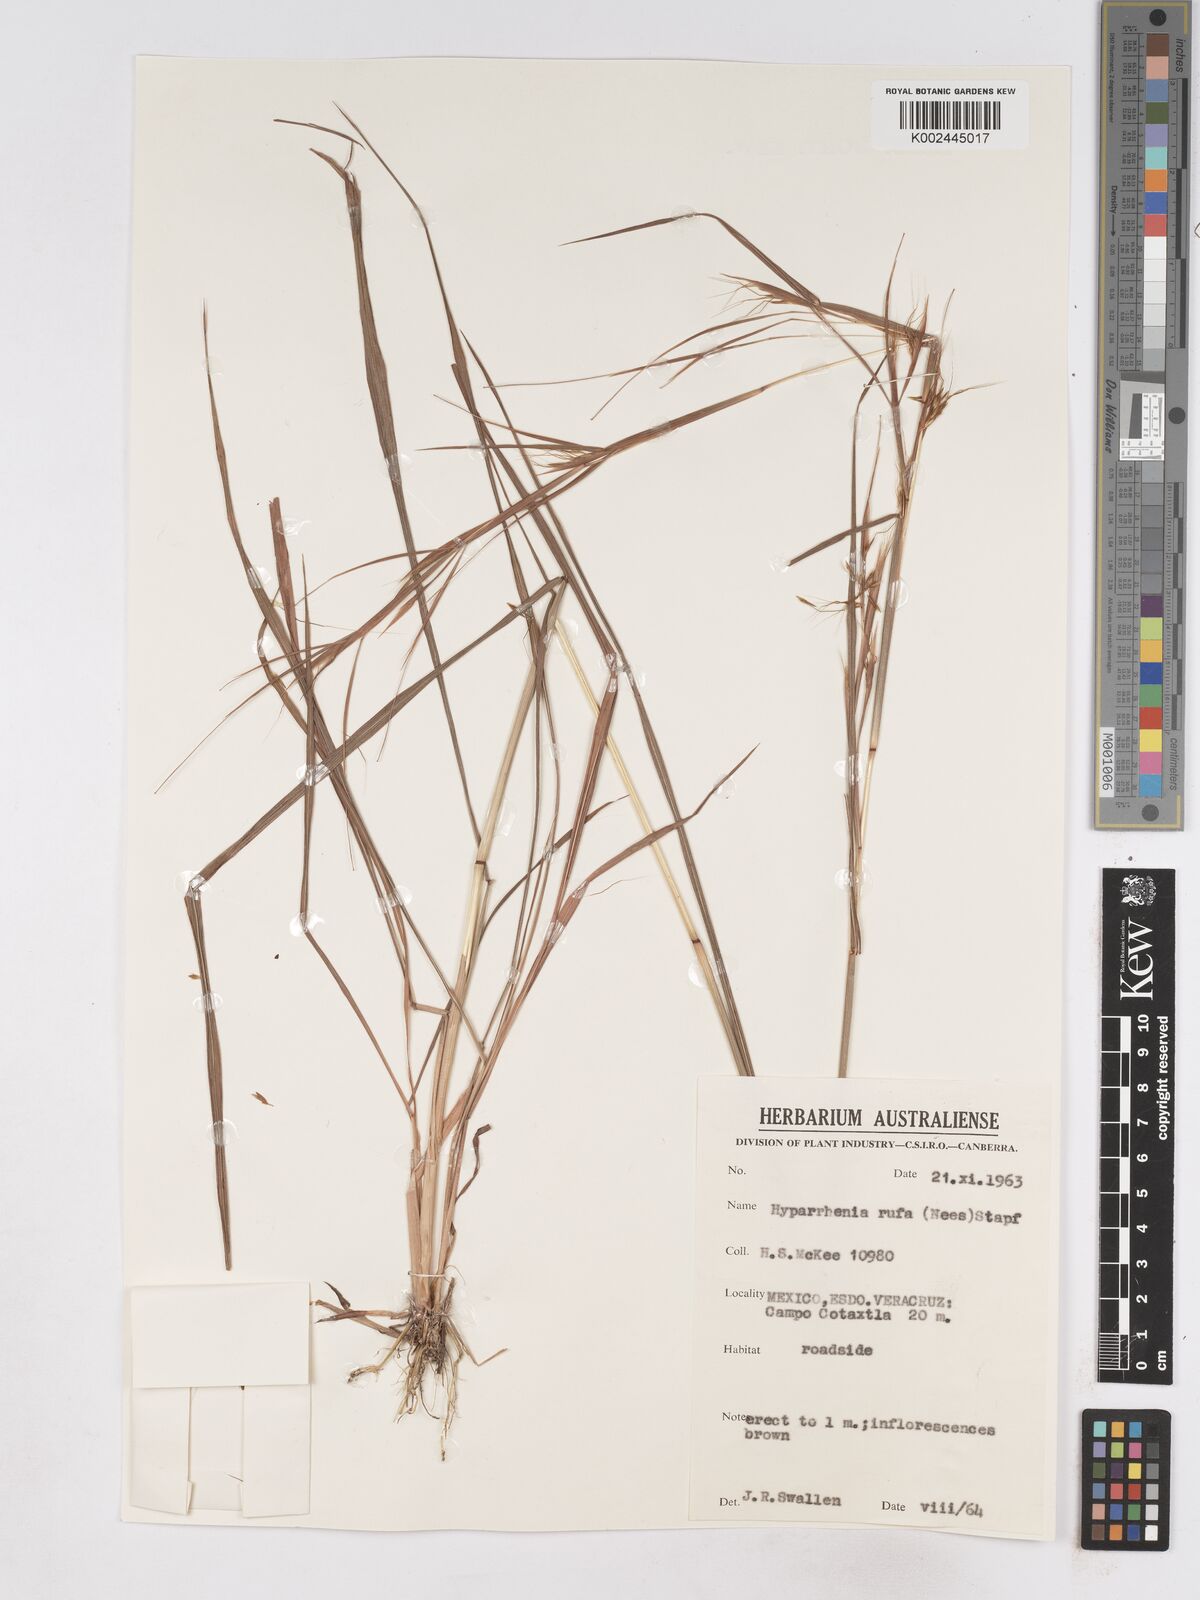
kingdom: Plantae
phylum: Tracheophyta
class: Liliopsida
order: Poales
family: Poaceae
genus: Hyparrhenia
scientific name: Hyparrhenia rufa
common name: Jaraguagrass
